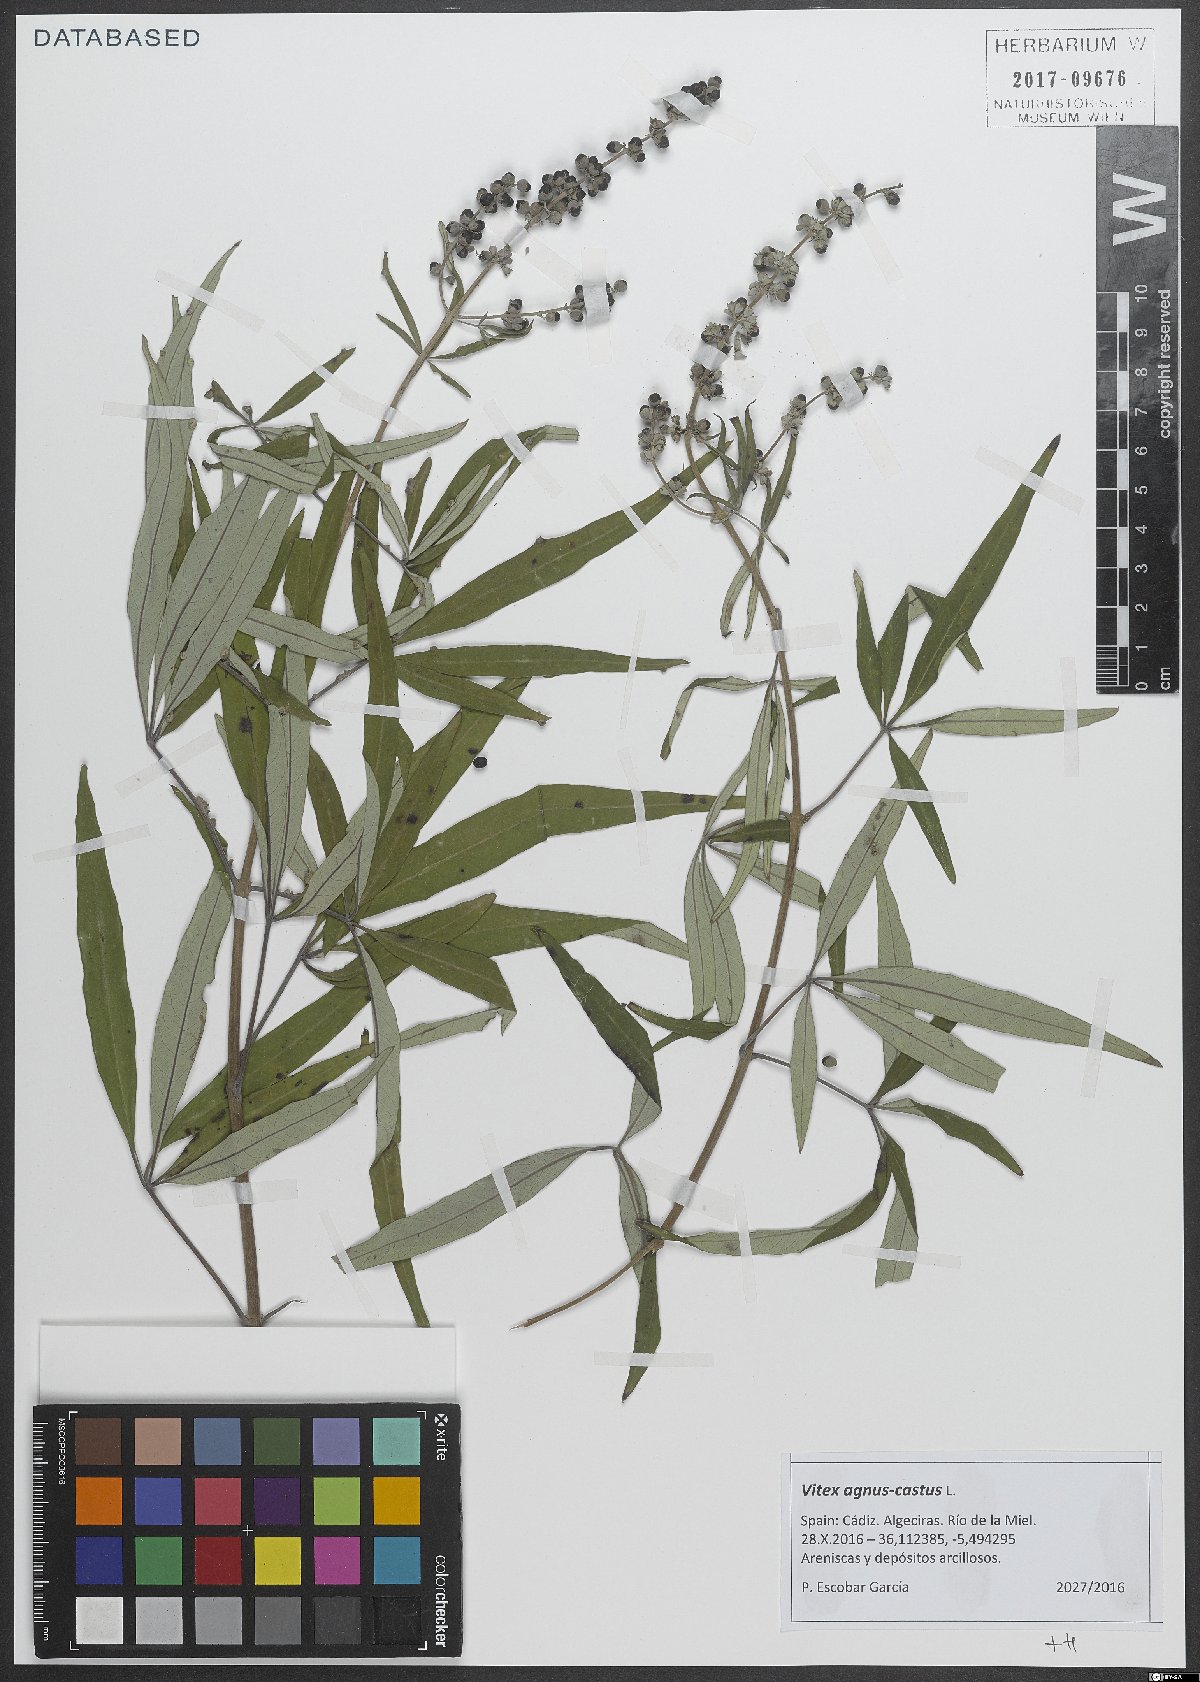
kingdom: Plantae
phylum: Tracheophyta
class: Magnoliopsida
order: Lamiales
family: Lamiaceae
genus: Vitex
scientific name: Vitex agnus-castus
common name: Chasteberry
